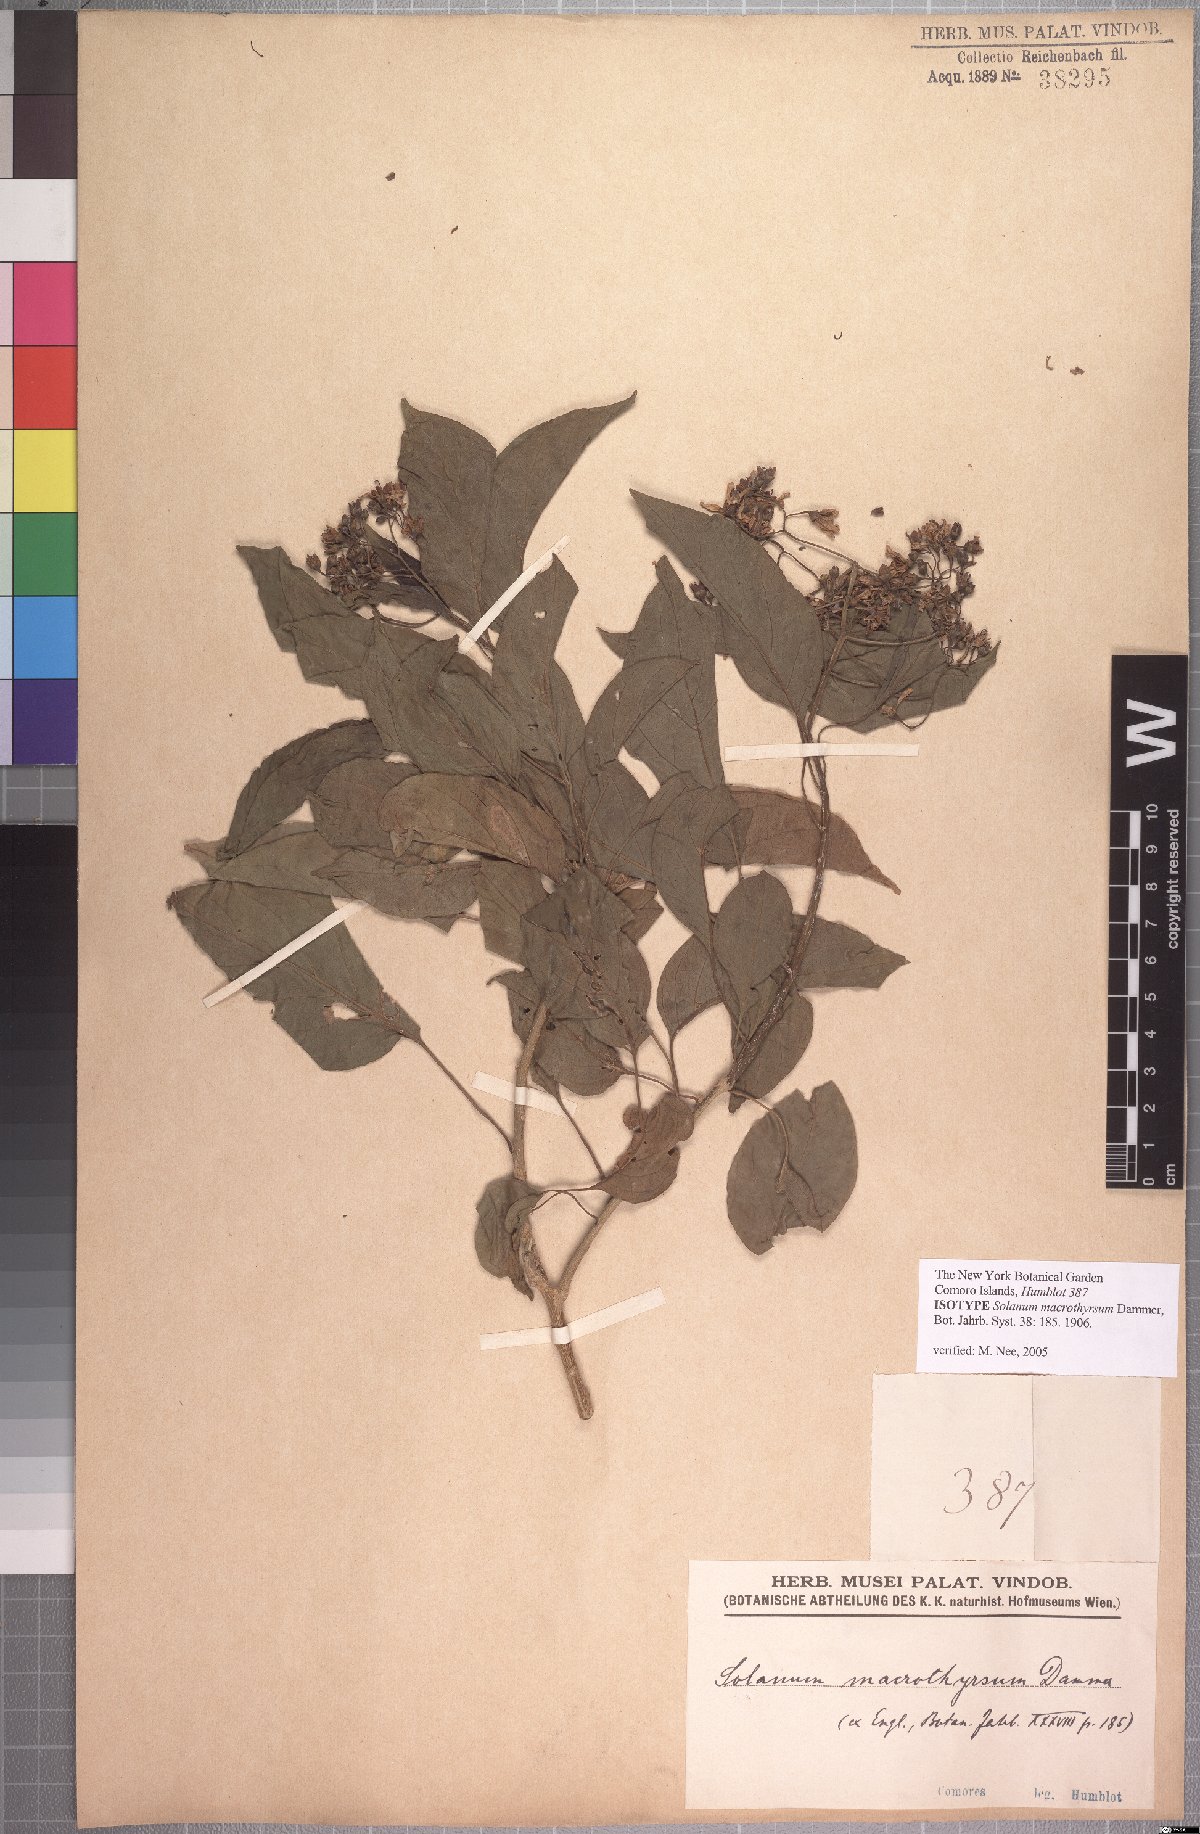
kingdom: Plantae
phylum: Tracheophyta
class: Magnoliopsida
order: Solanales
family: Solanaceae
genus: Solanum
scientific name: Solanum runsoriense
